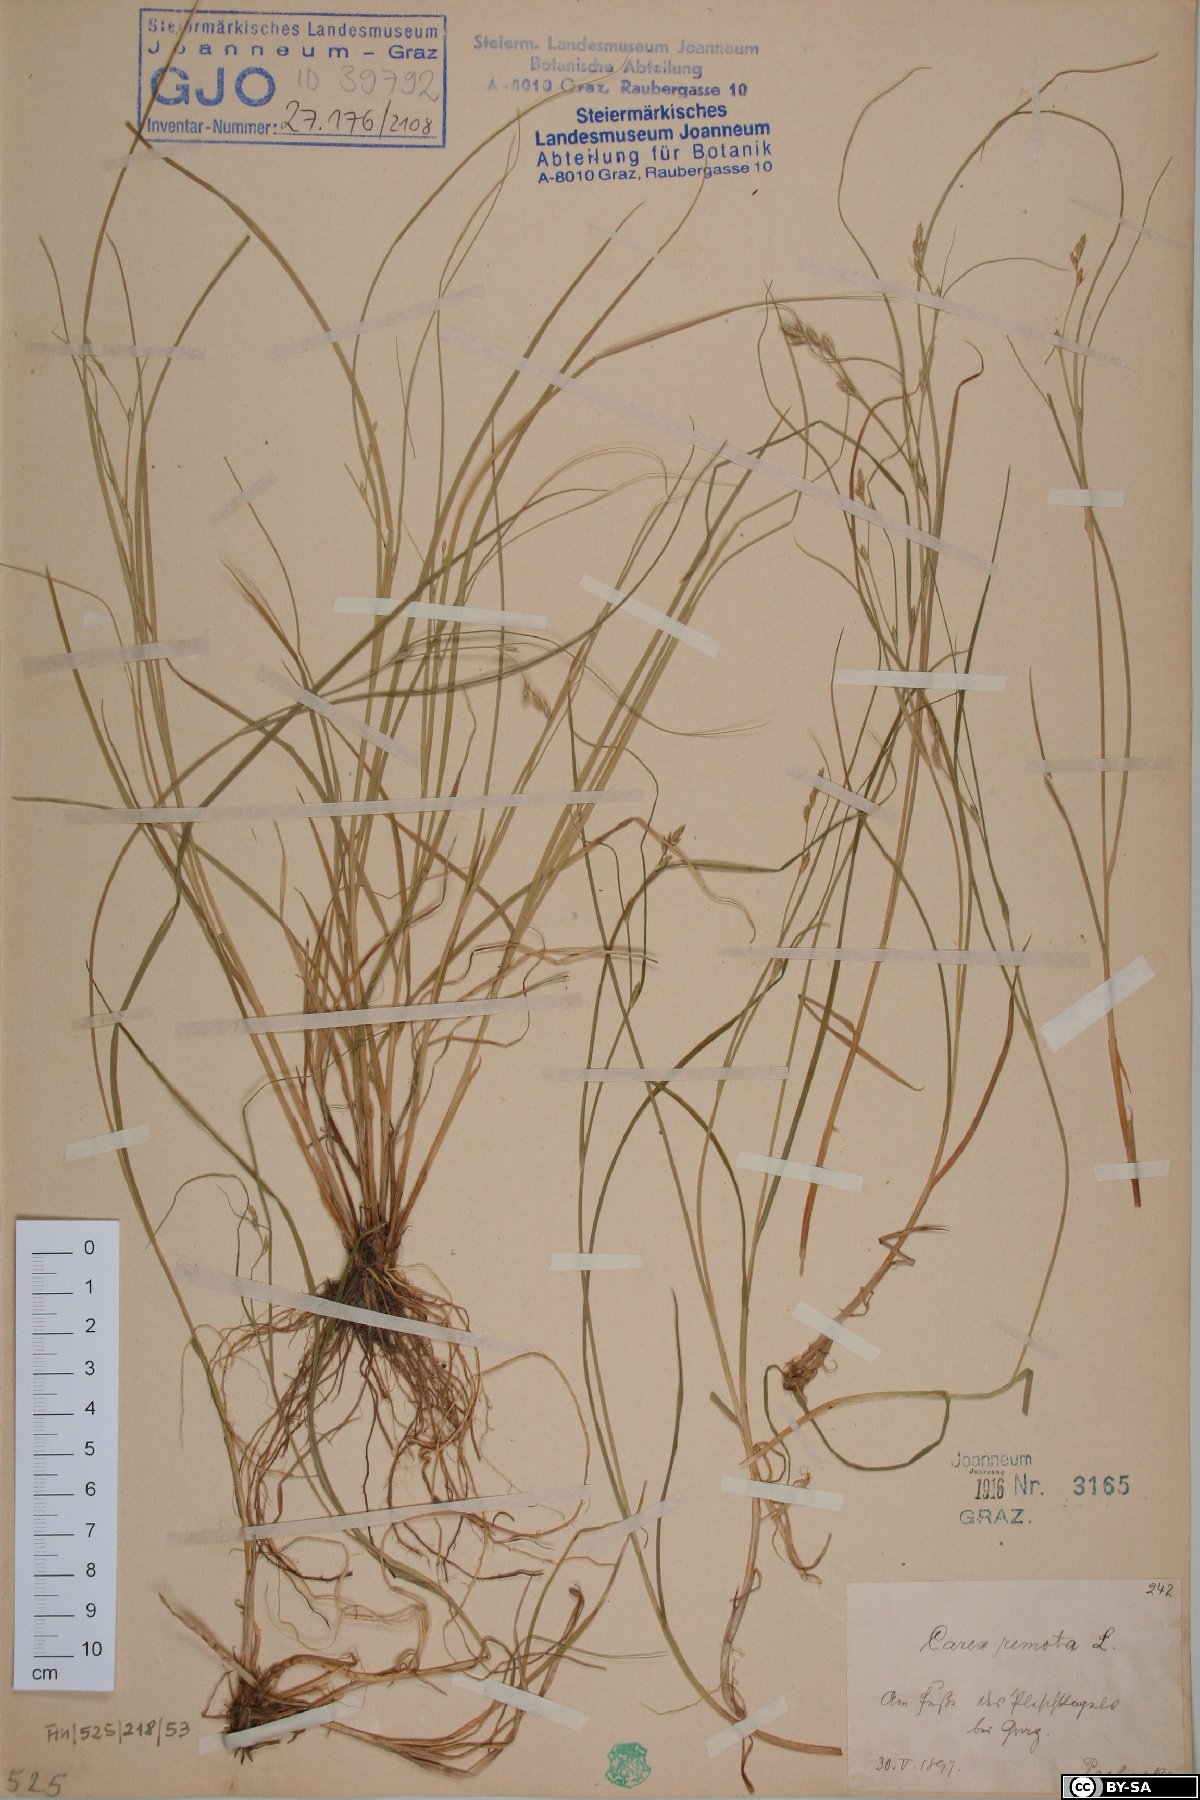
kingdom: Plantae
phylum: Tracheophyta
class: Liliopsida
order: Poales
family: Cyperaceae
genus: Carex
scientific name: Carex remota
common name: Remote sedge
